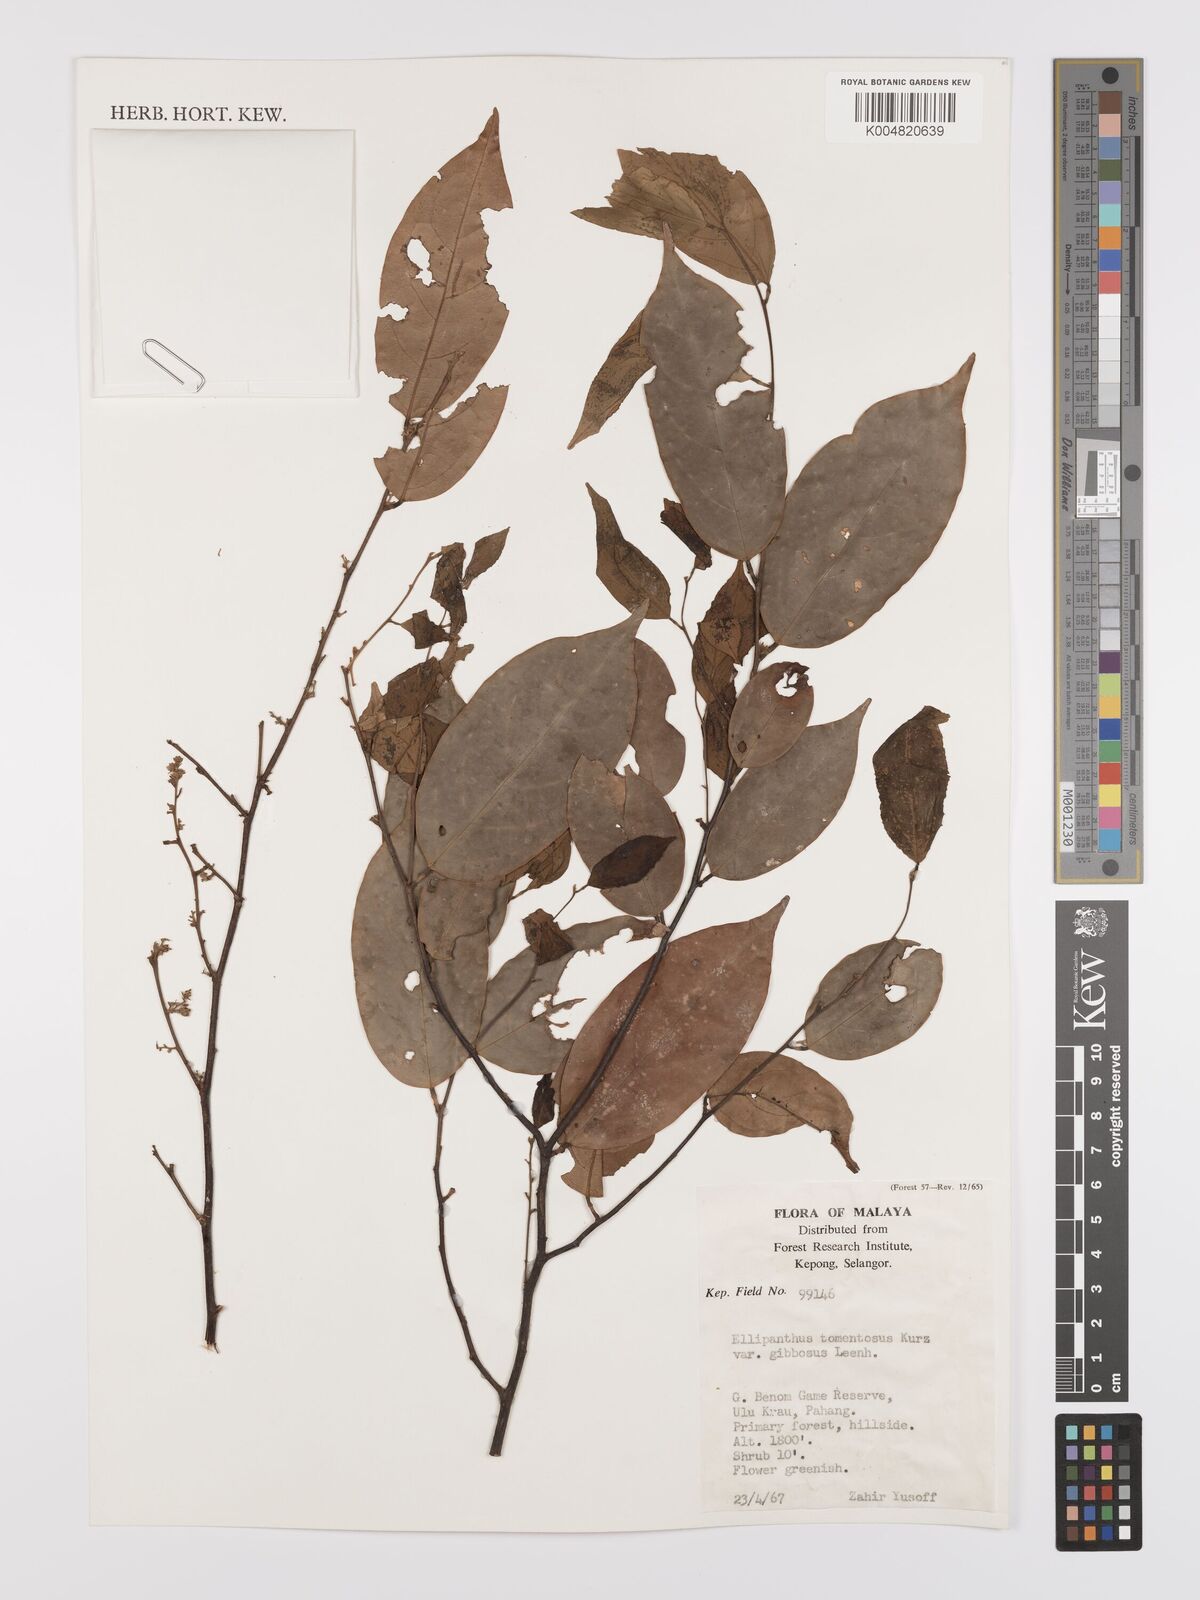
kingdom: Plantae
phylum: Tracheophyta
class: Magnoliopsida
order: Oxalidales
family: Connaraceae
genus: Ellipanthus
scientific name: Ellipanthus tomentosus
